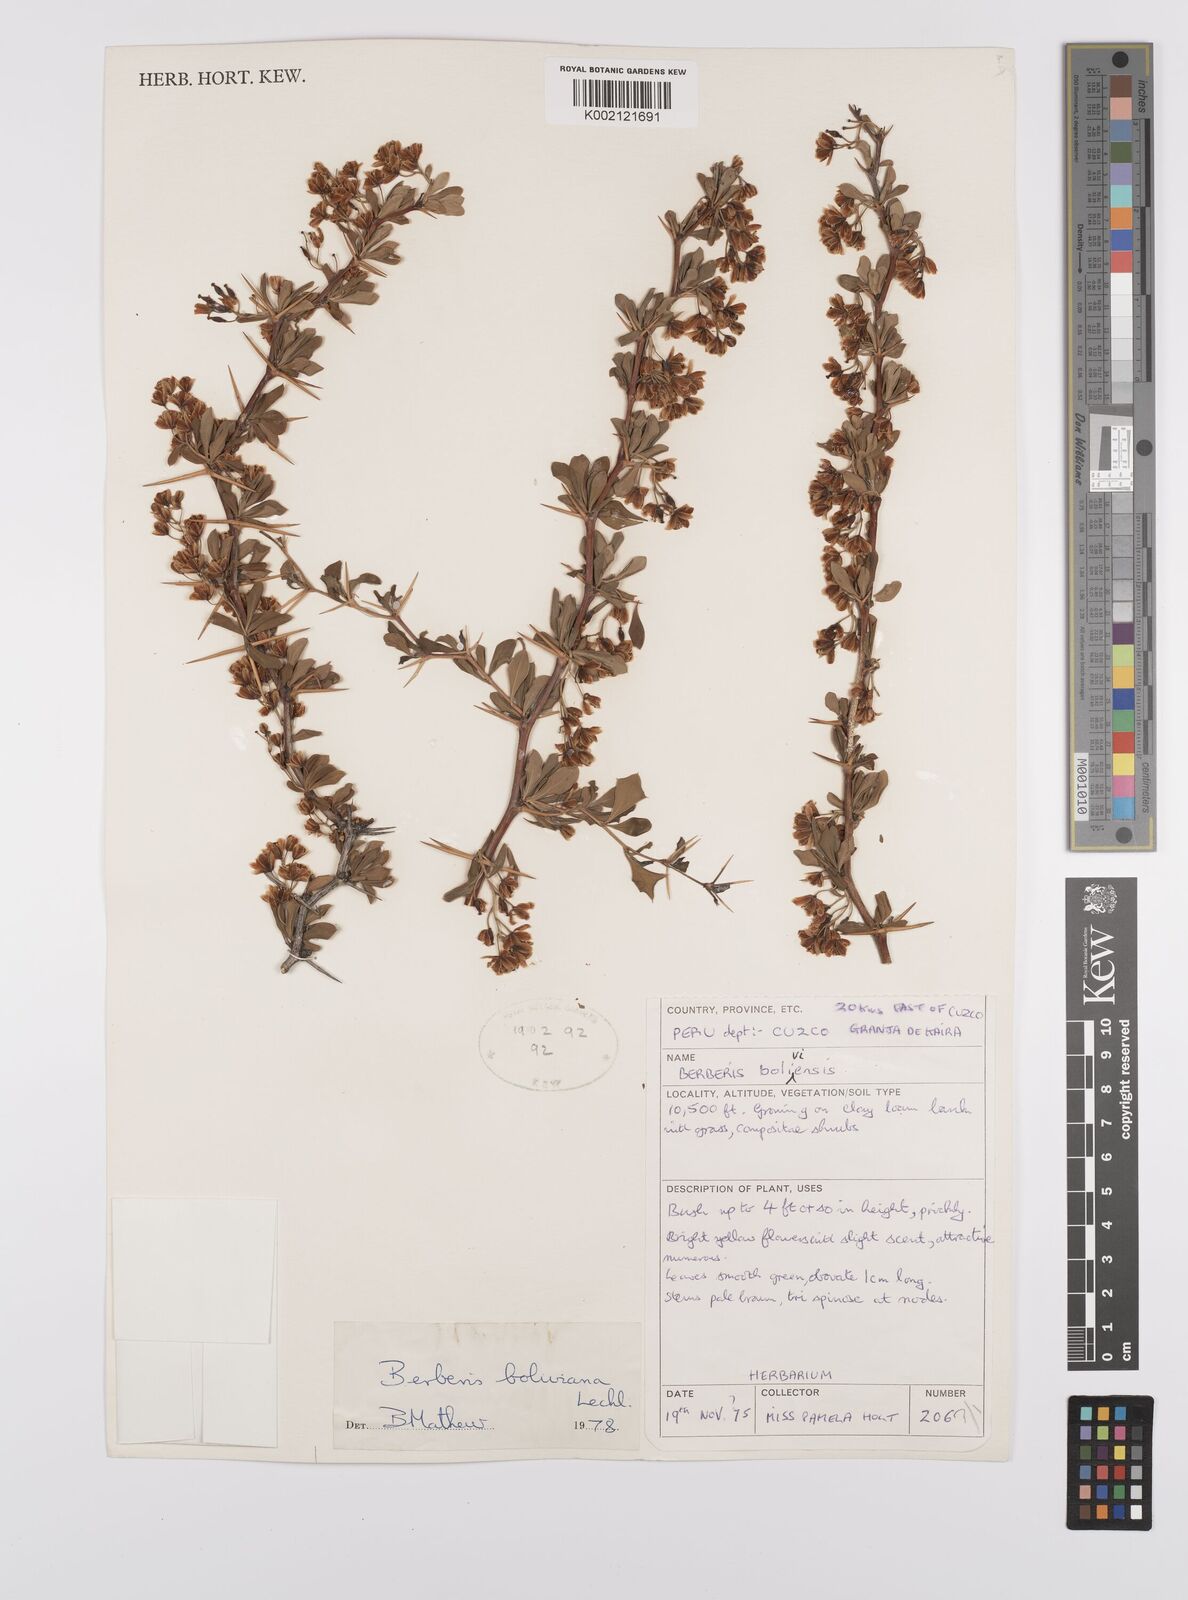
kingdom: Plantae
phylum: Tracheophyta
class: Magnoliopsida
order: Ranunculales
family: Berberidaceae
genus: Berberis
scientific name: Berberis boliviana
